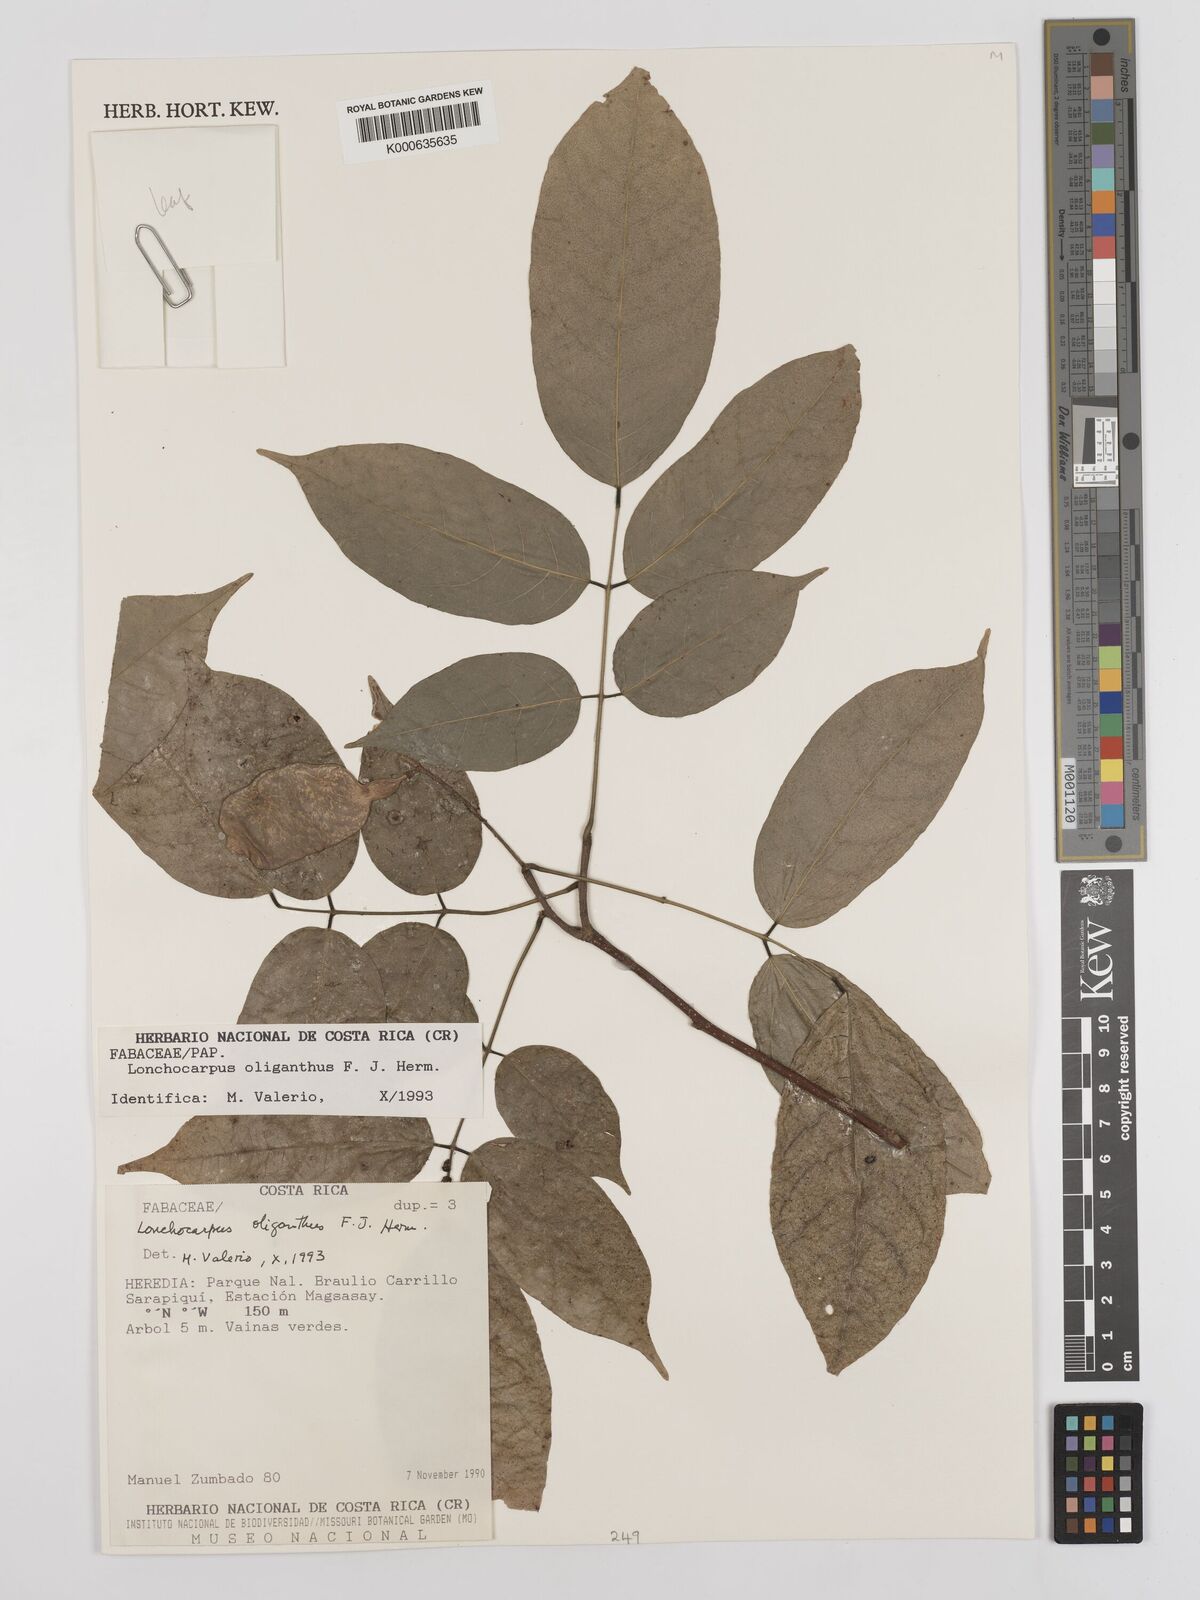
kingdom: Plantae
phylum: Tracheophyta
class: Magnoliopsida
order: Fabales
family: Fabaceae
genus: Lonchocarpus
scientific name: Lonchocarpus oliganthus
